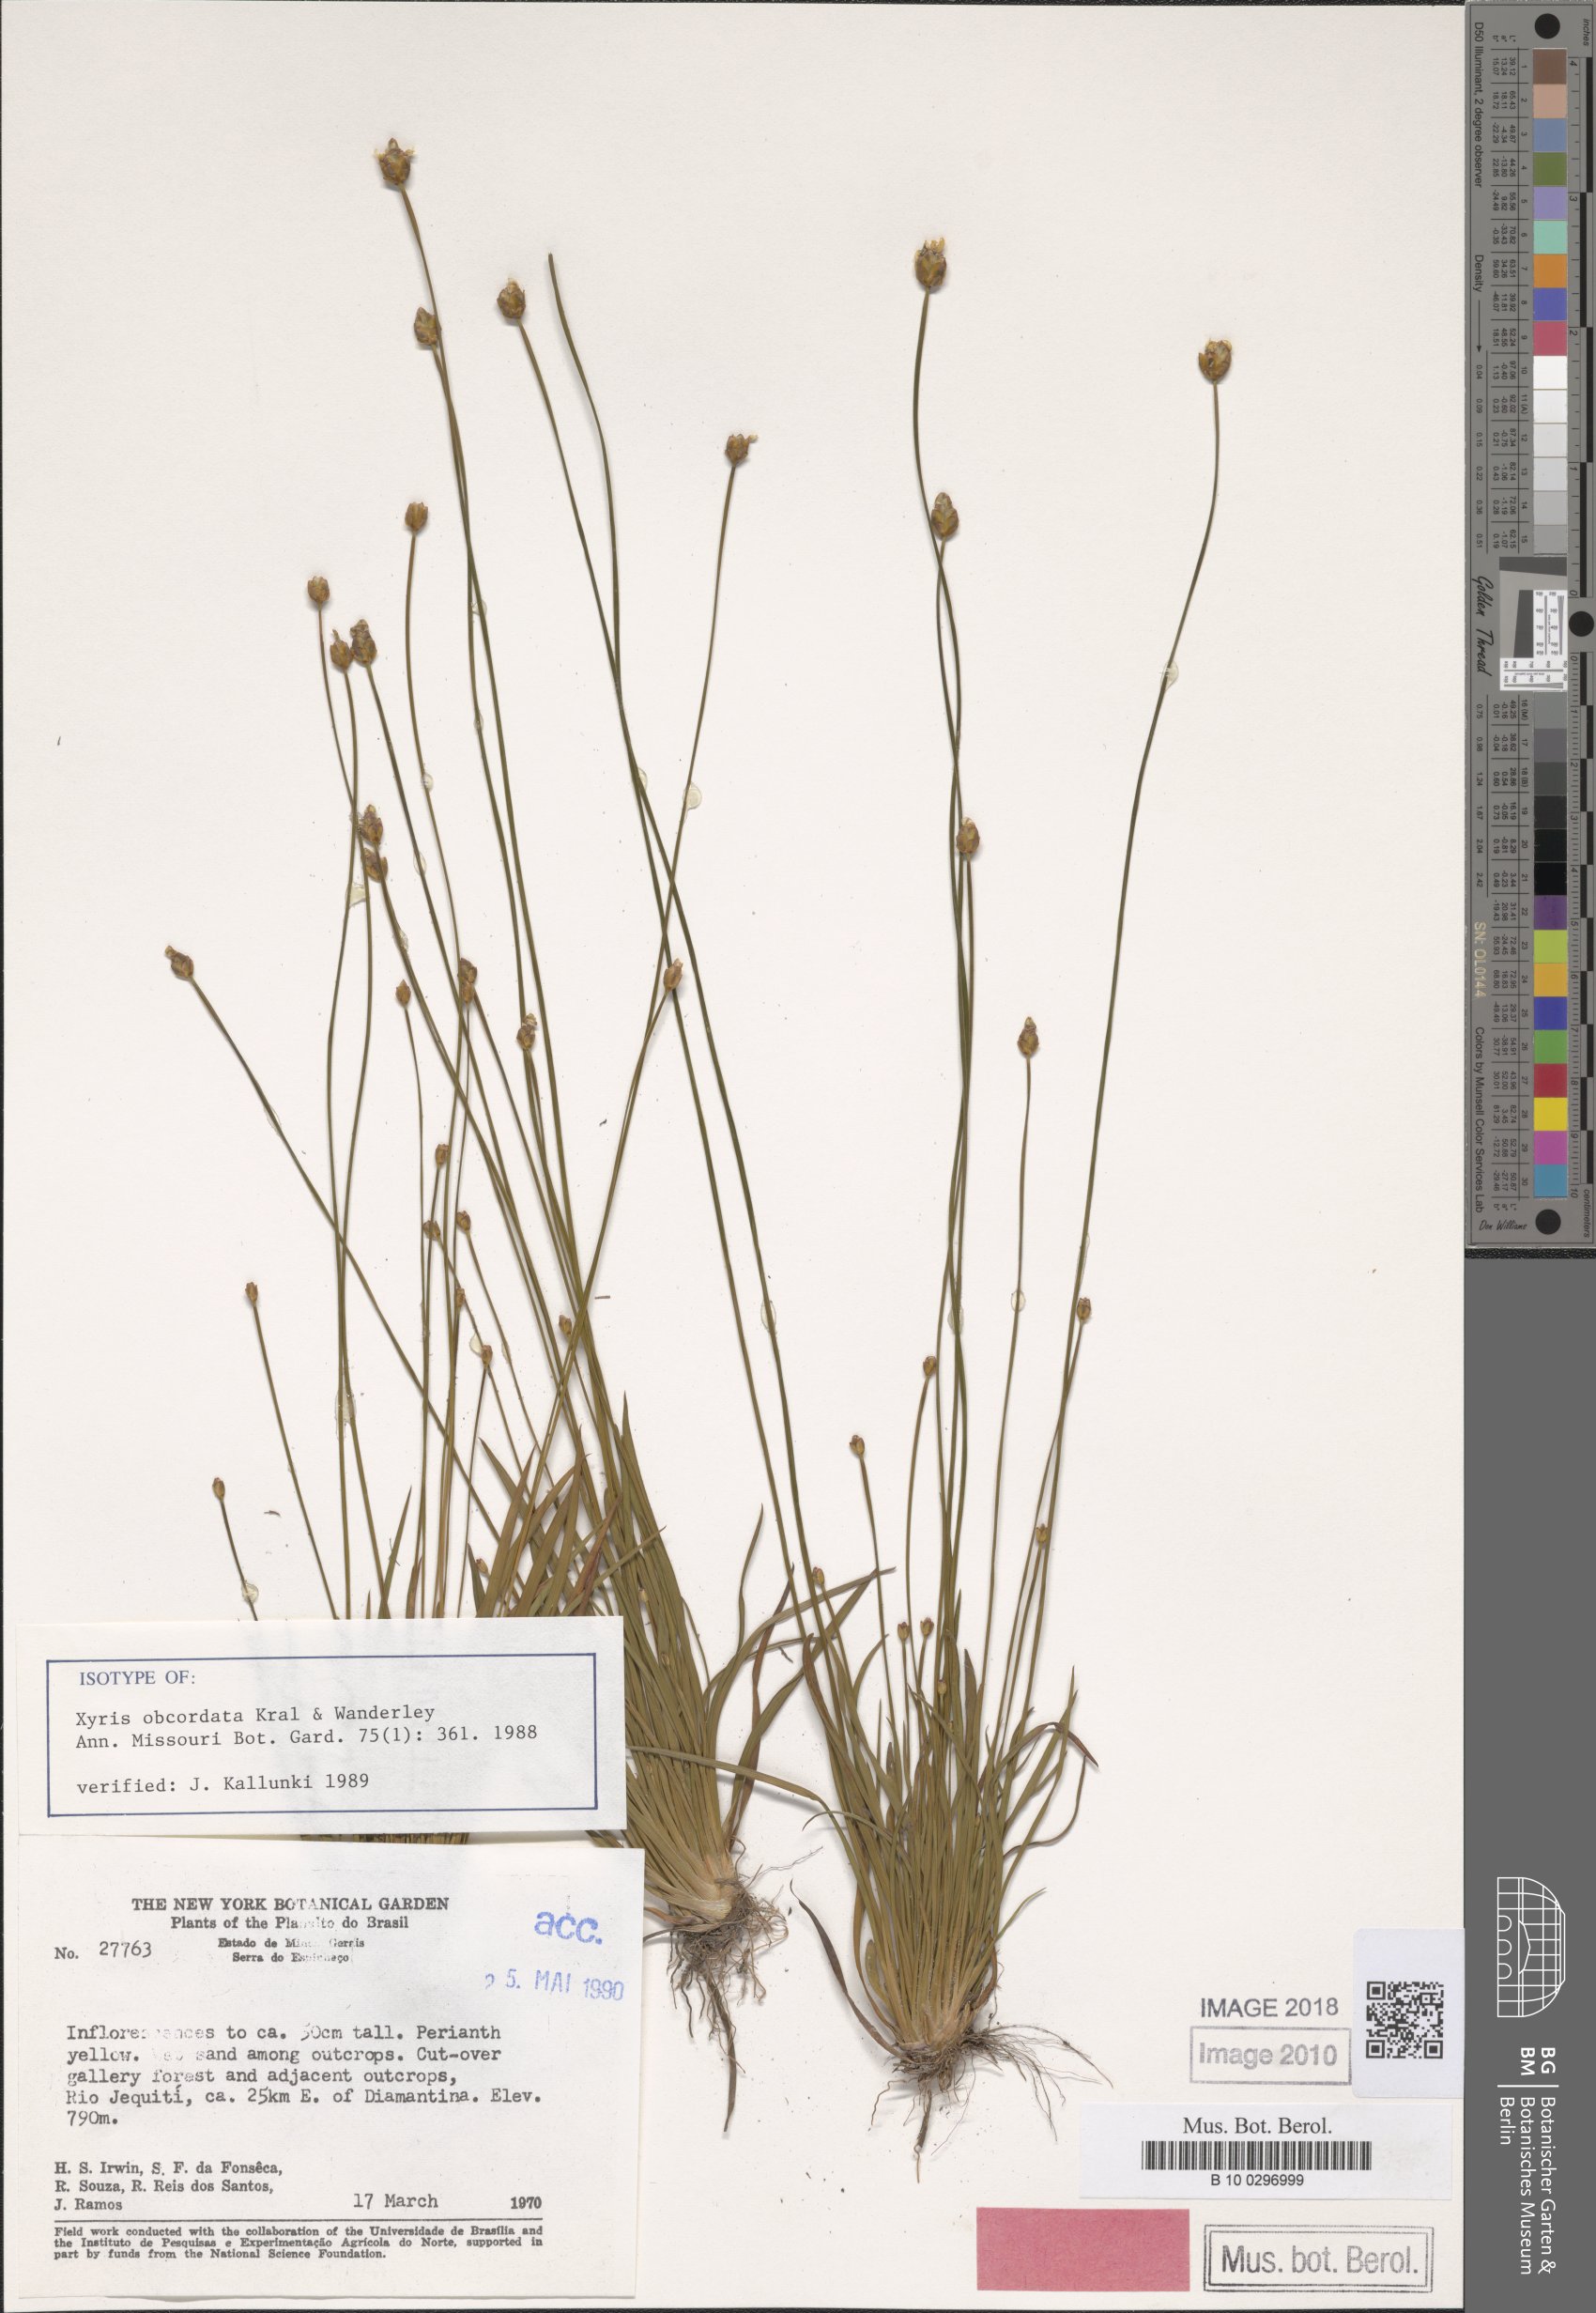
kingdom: Plantae
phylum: Tracheophyta
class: Liliopsida
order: Poales
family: Xyridaceae
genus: Xyris
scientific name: Xyris obcordata
